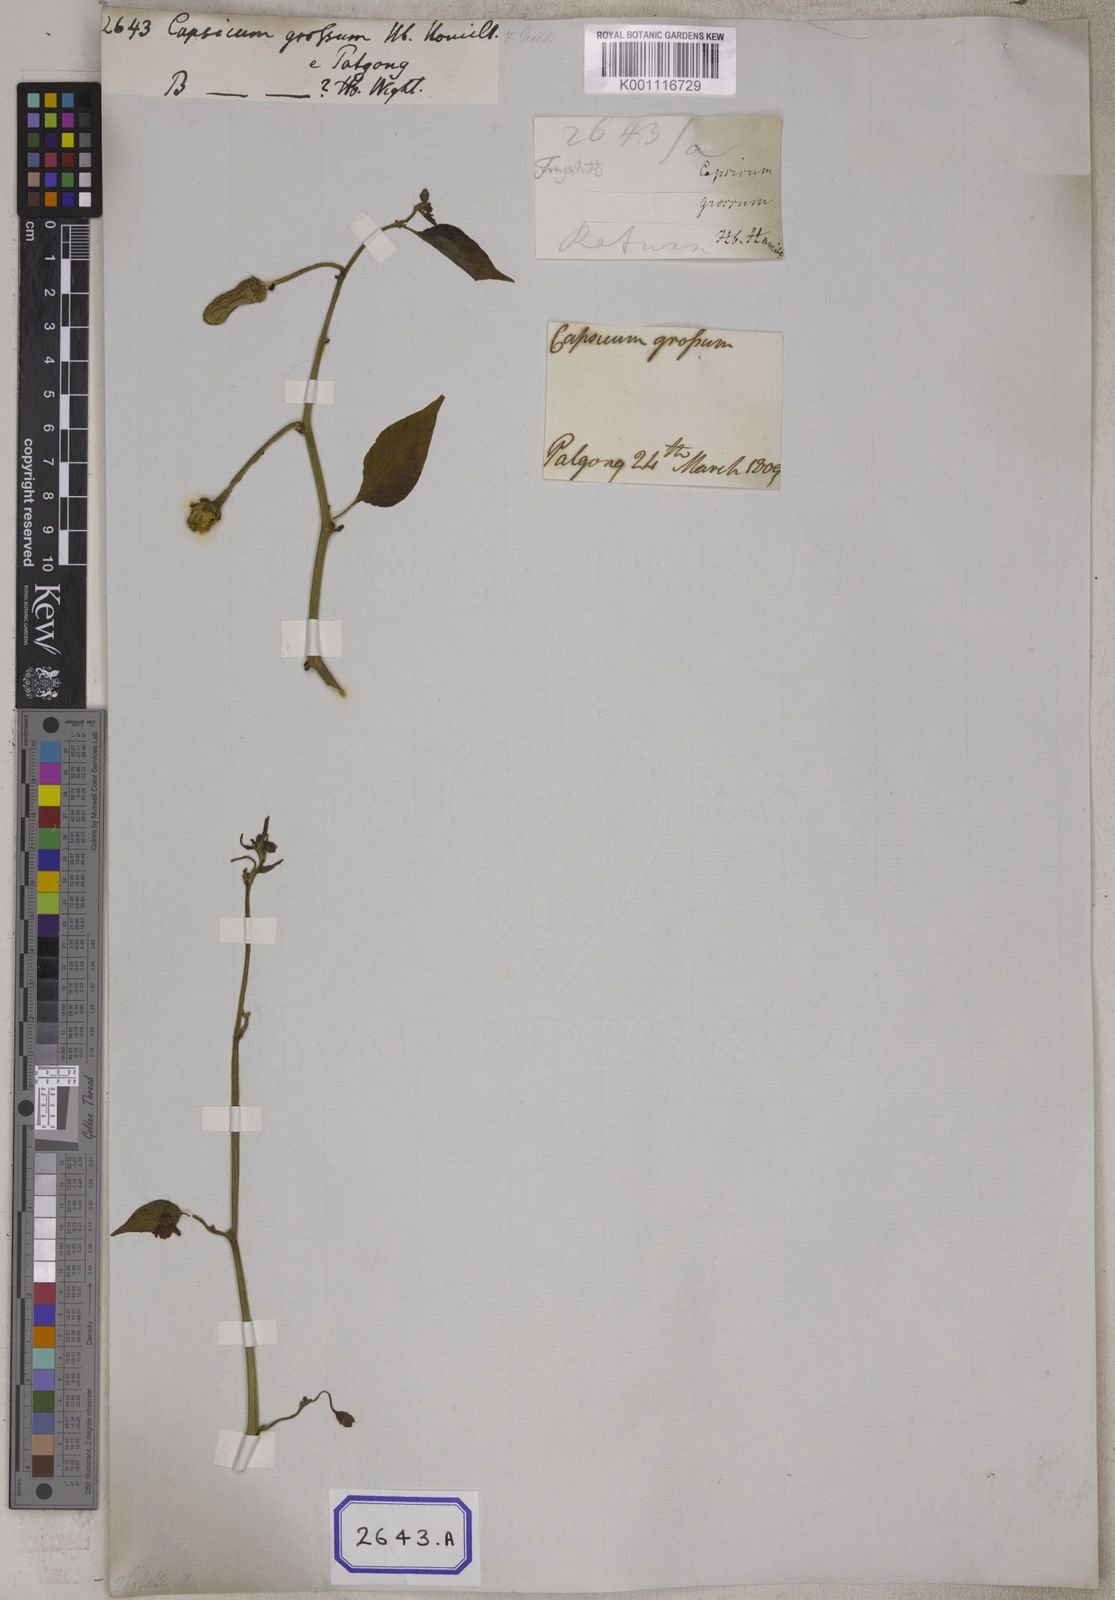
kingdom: Plantae
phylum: Tracheophyta
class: Magnoliopsida
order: Solanales
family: Solanaceae
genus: Capsicum
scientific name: Capsicum annuum
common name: Sweet pepper
